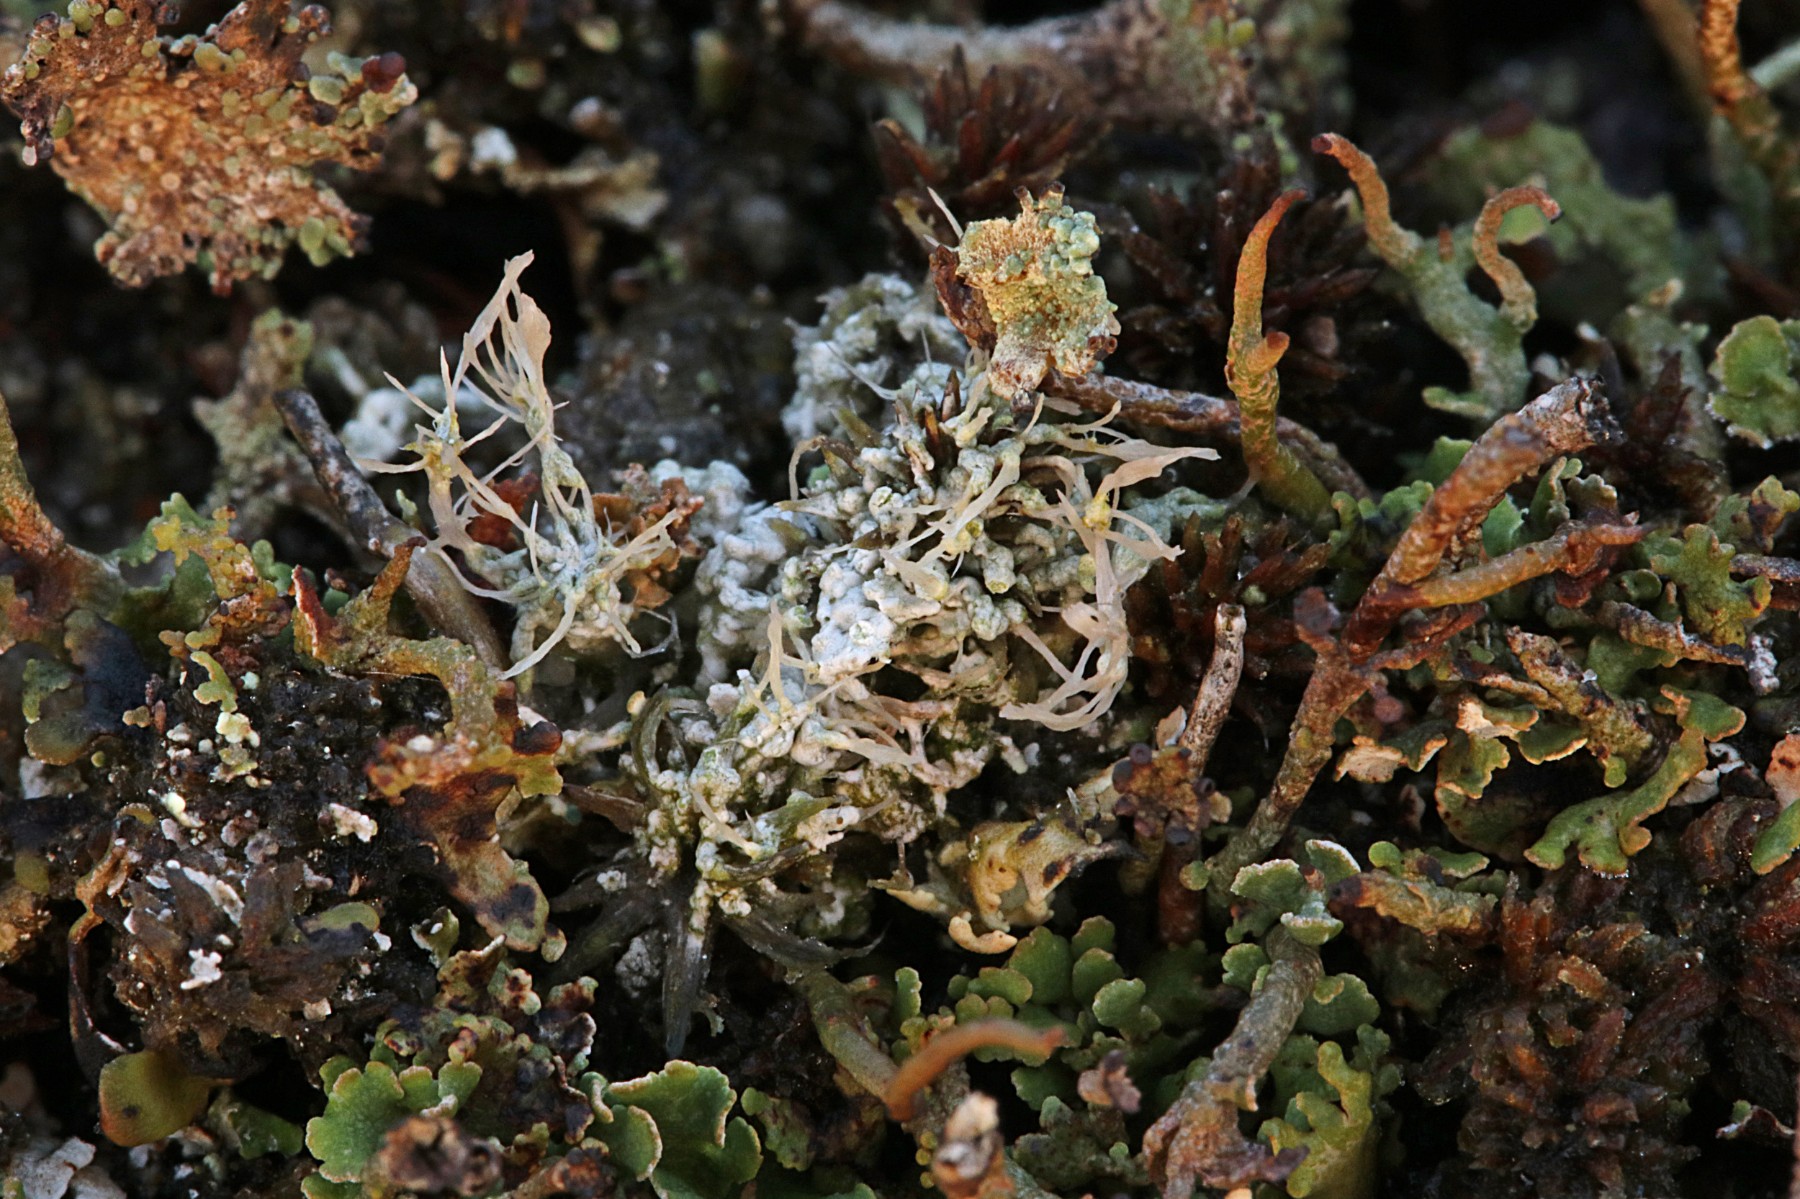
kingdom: Fungi
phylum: Ascomycota
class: Lecanoromycetes
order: Pertusariales
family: Ochrolechiaceae
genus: Ochrolechia
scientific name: Ochrolechia frigida
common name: fjeld-blegskivelav
